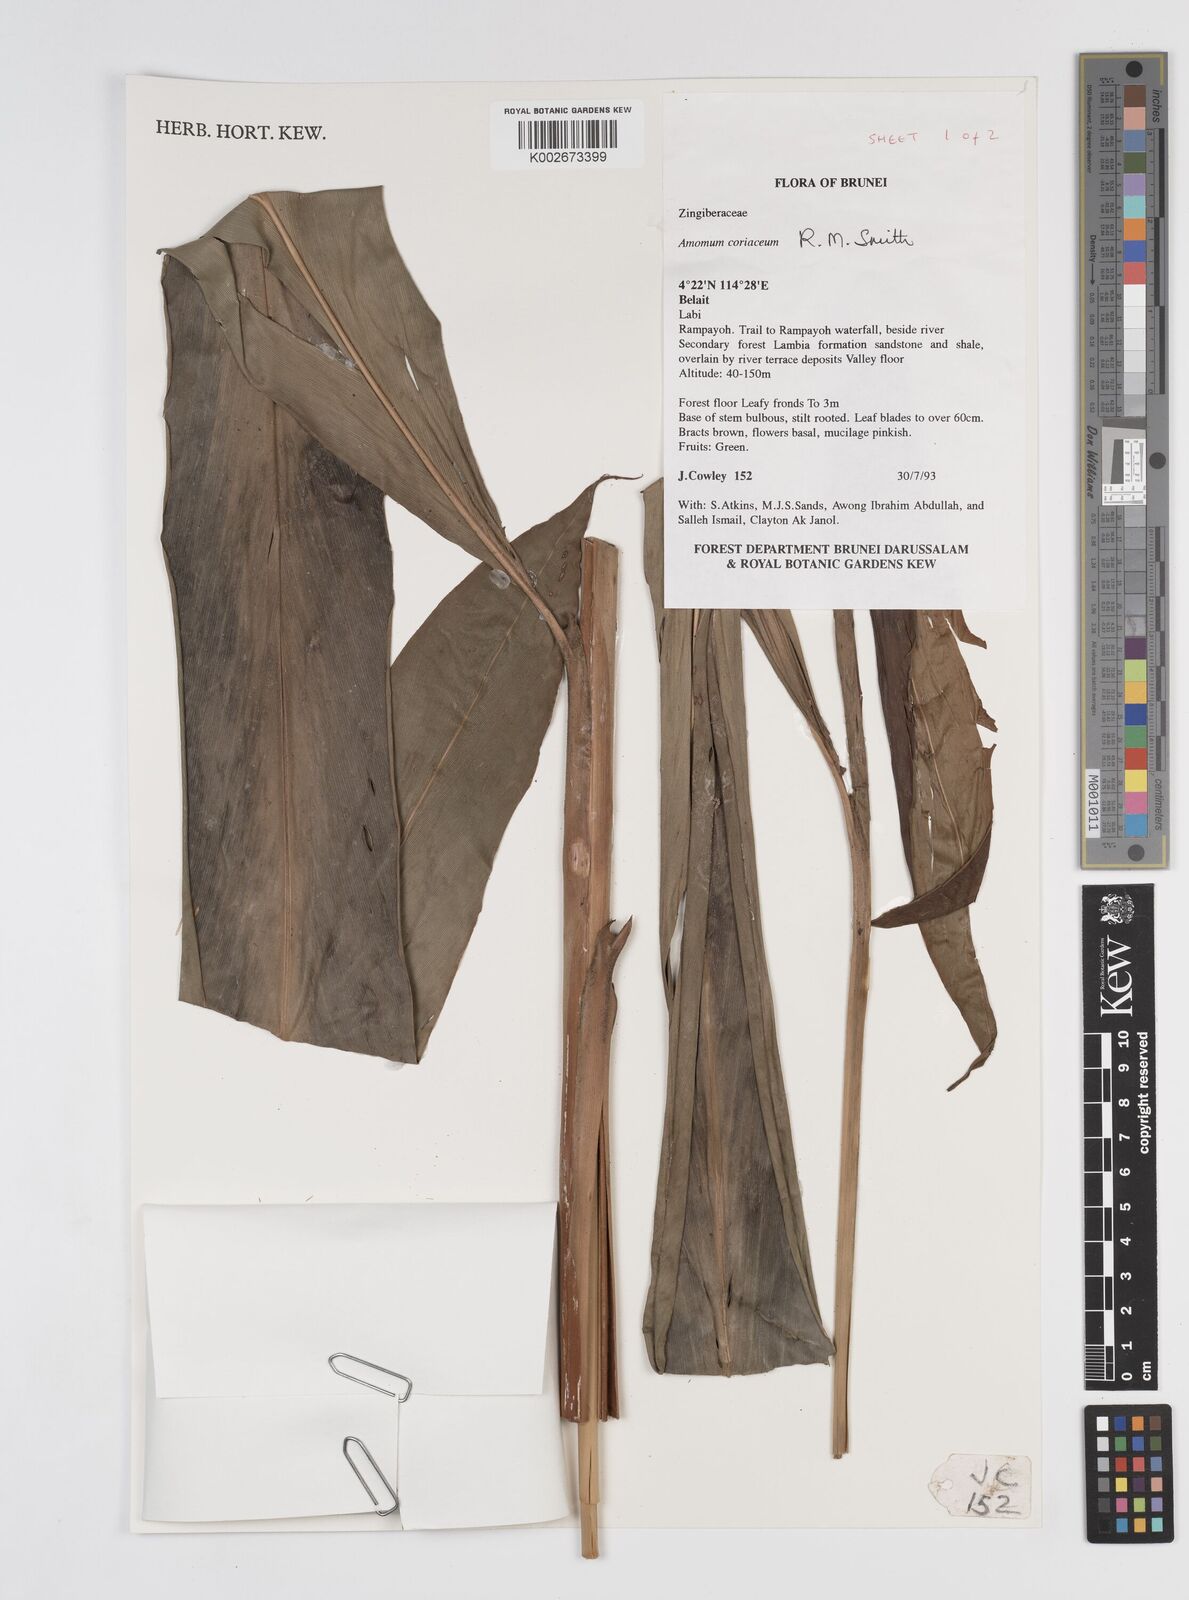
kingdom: Plantae
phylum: Tracheophyta
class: Liliopsida
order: Zingiberales
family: Zingiberaceae
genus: Conamomum
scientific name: Conamomum cylindrostachys
